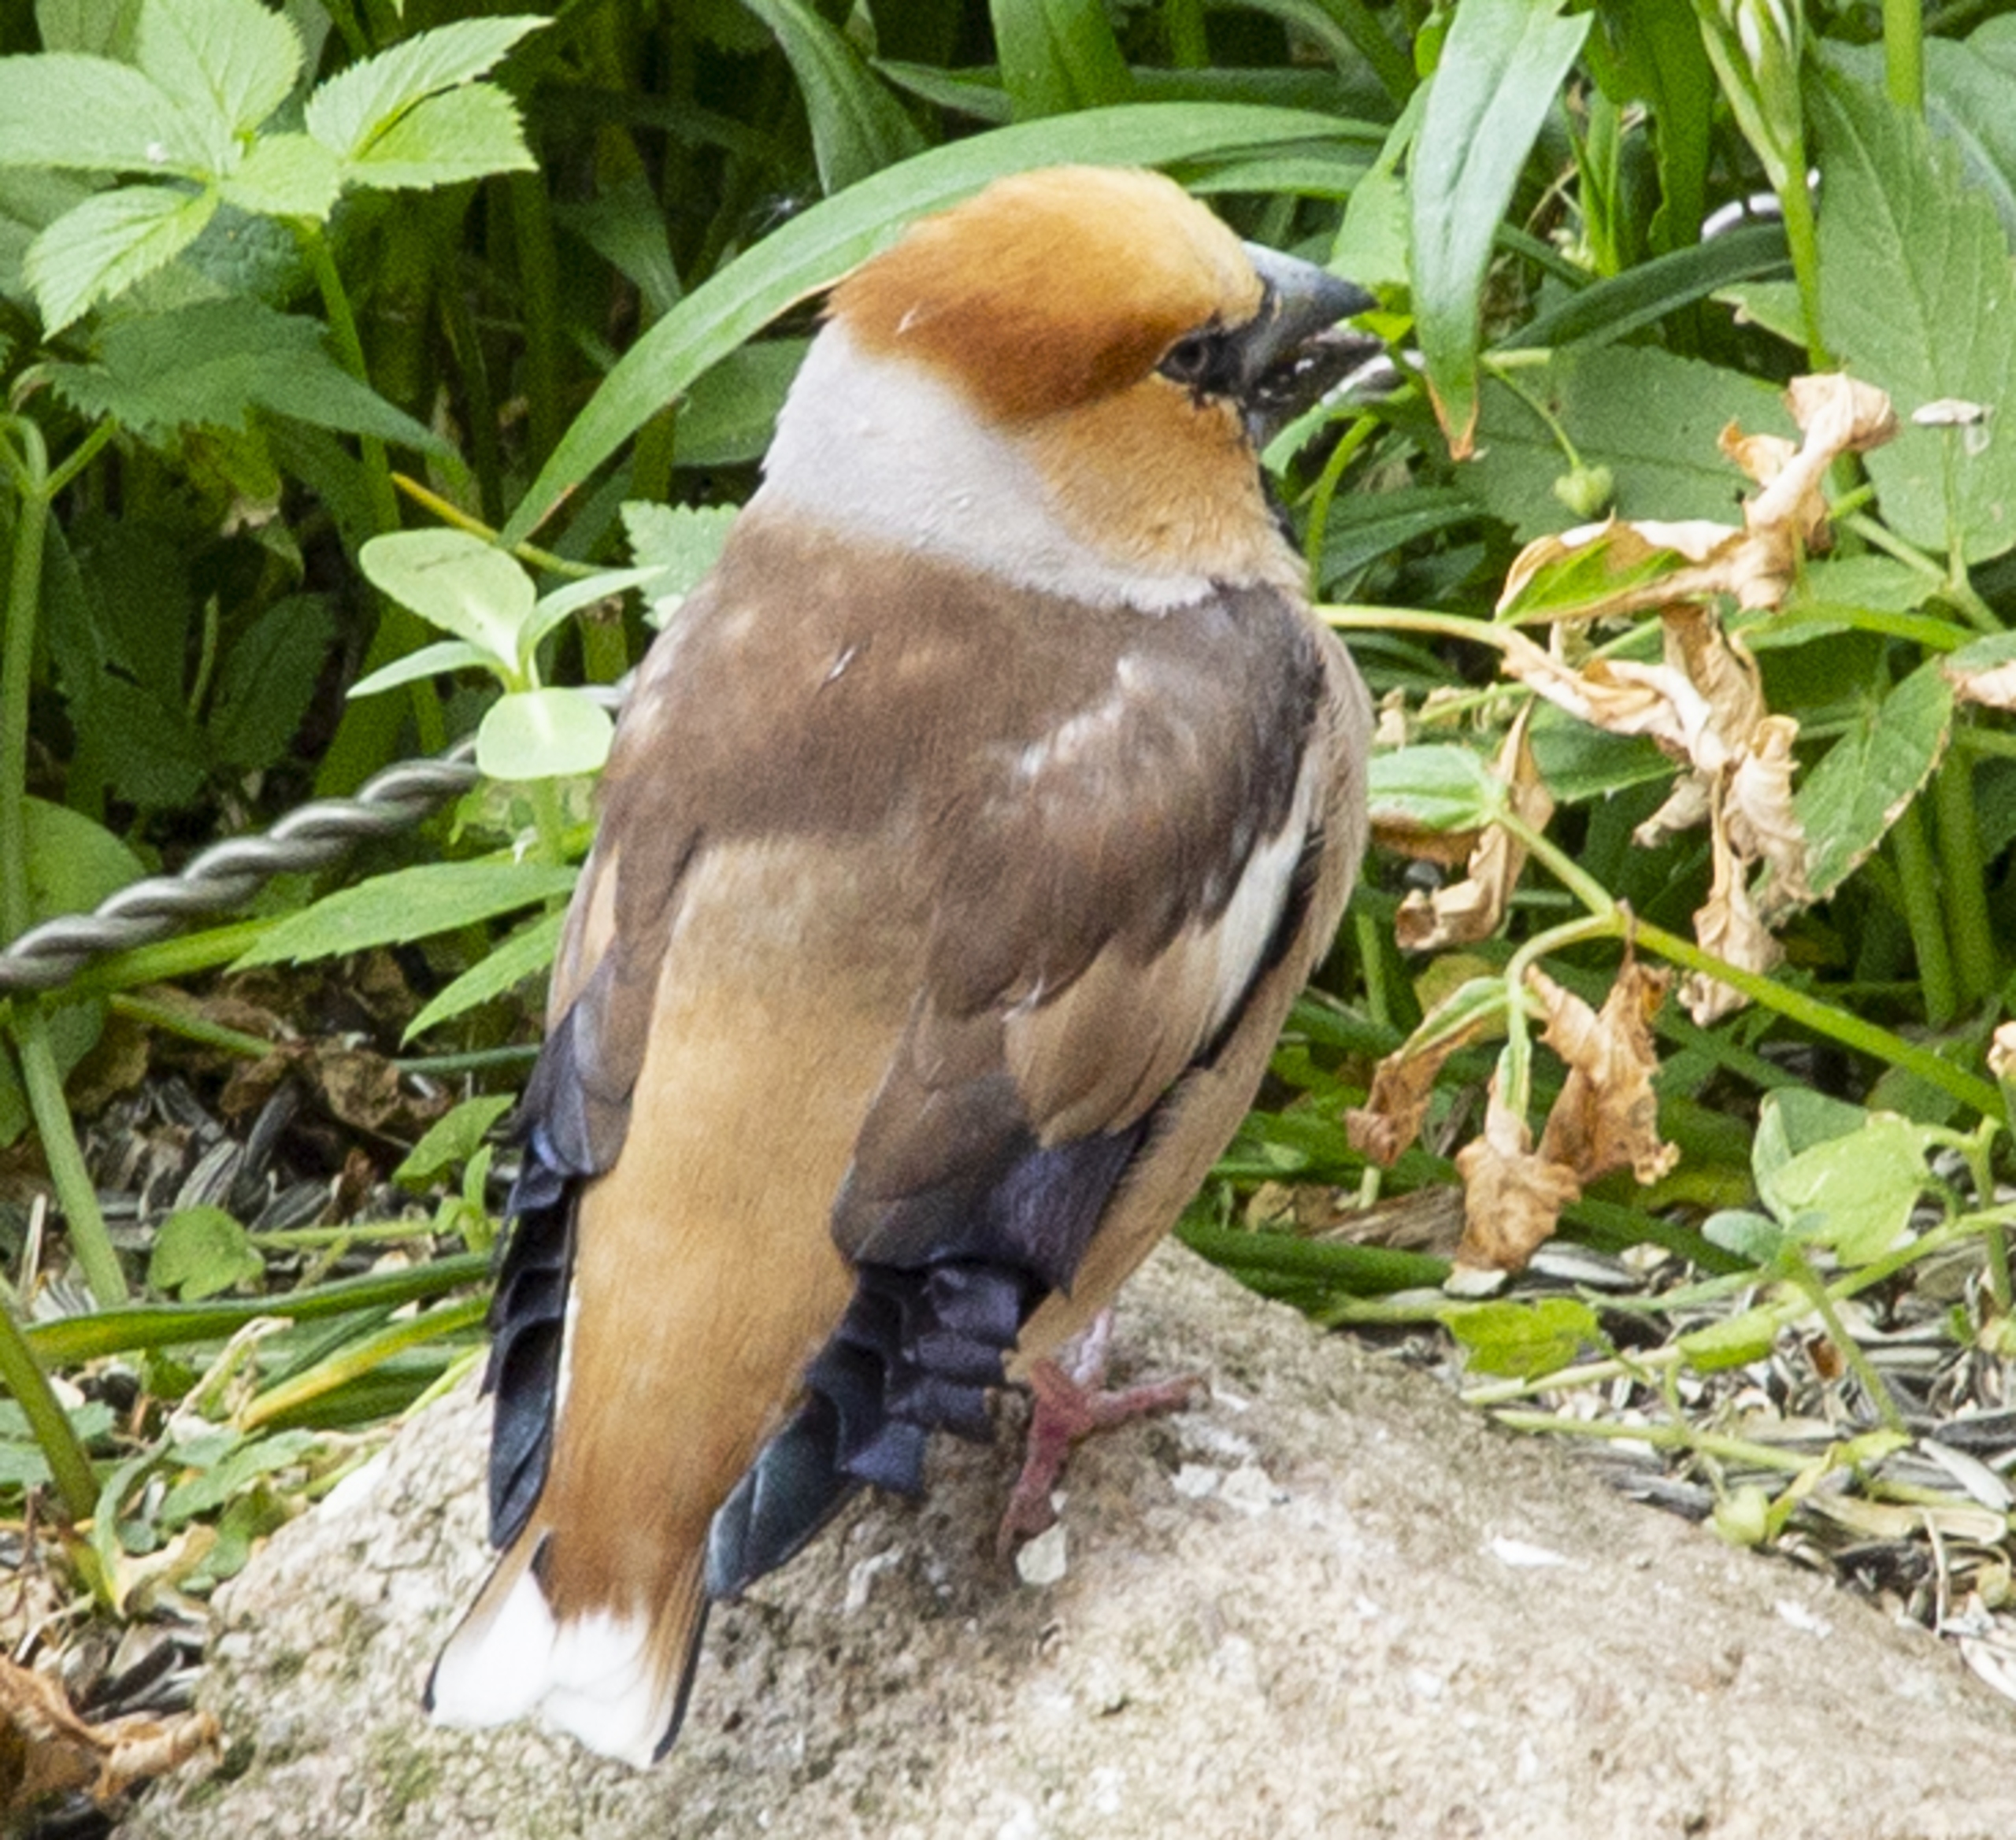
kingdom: Animalia
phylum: Chordata
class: Aves
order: Passeriformes
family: Fringillidae
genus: Coccothraustes
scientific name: Coccothraustes coccothraustes
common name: Kernebider
